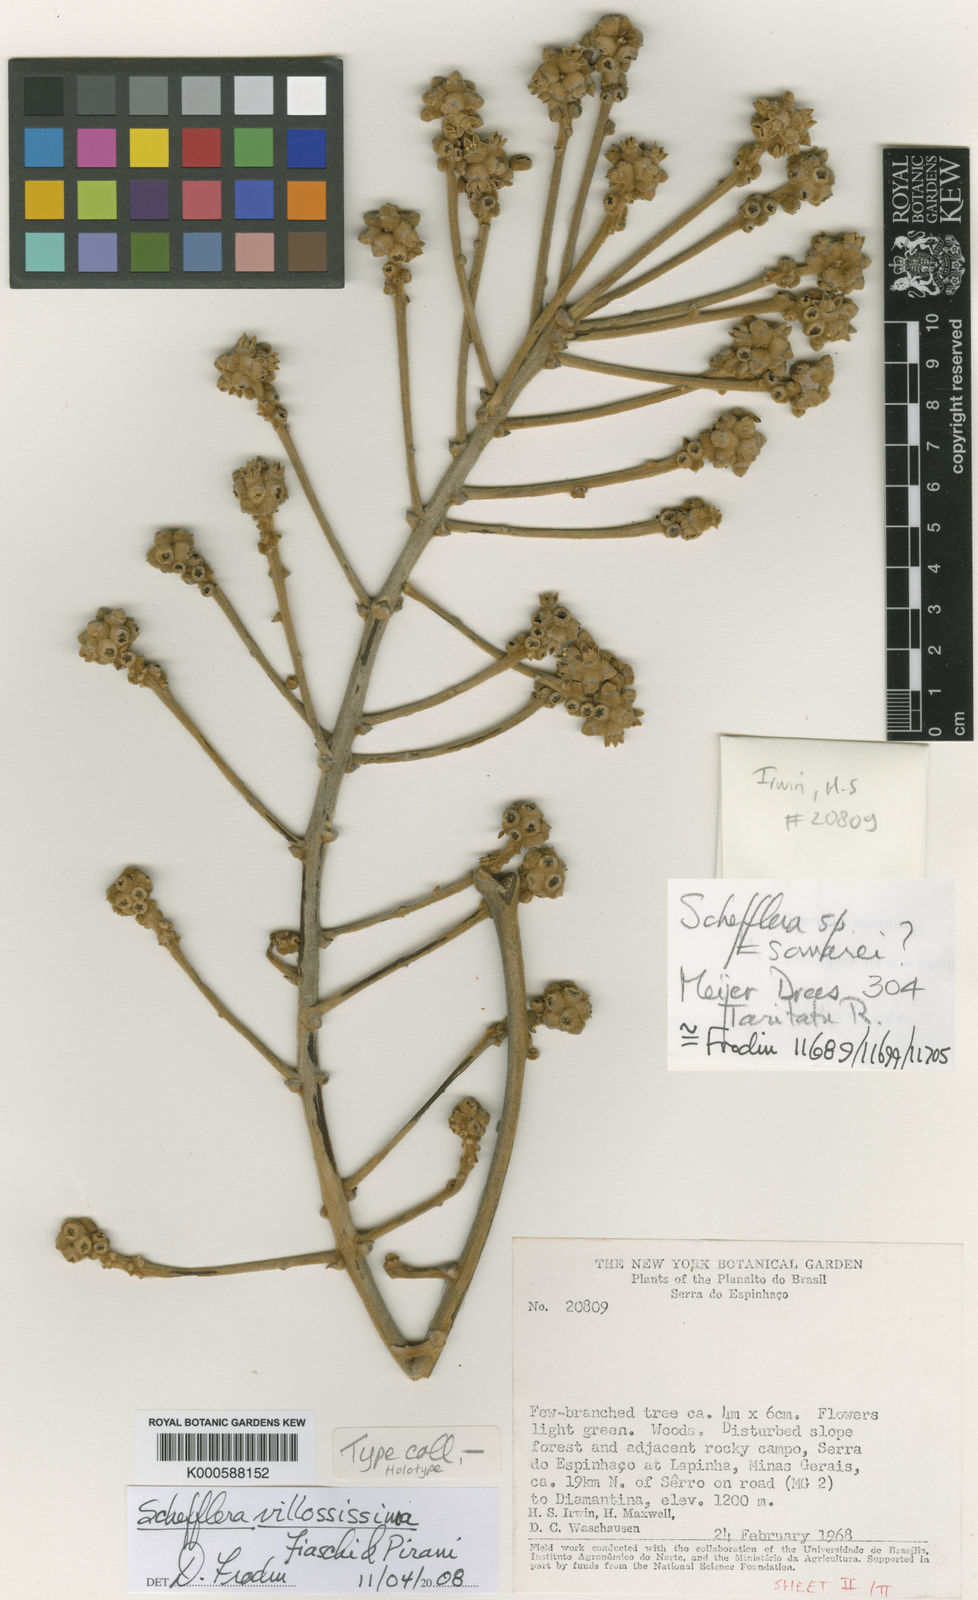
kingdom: Plantae
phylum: Tracheophyta
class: Magnoliopsida
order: Apiales
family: Araliaceae
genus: Sciodaphyllum
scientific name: Sciodaphyllum samarianum
